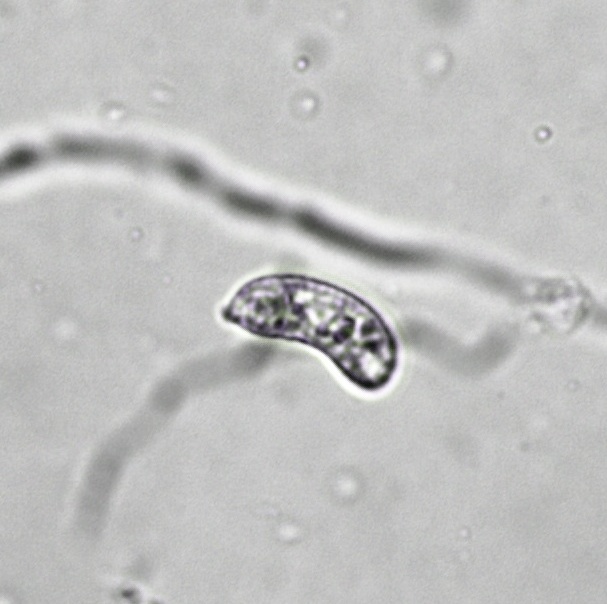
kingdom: Fungi
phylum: Basidiomycota
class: Agaricomycetes
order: Auriculariales
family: Auriculariaceae
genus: Exidia
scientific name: Exidia thuretiana
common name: hvidlig bævretop
